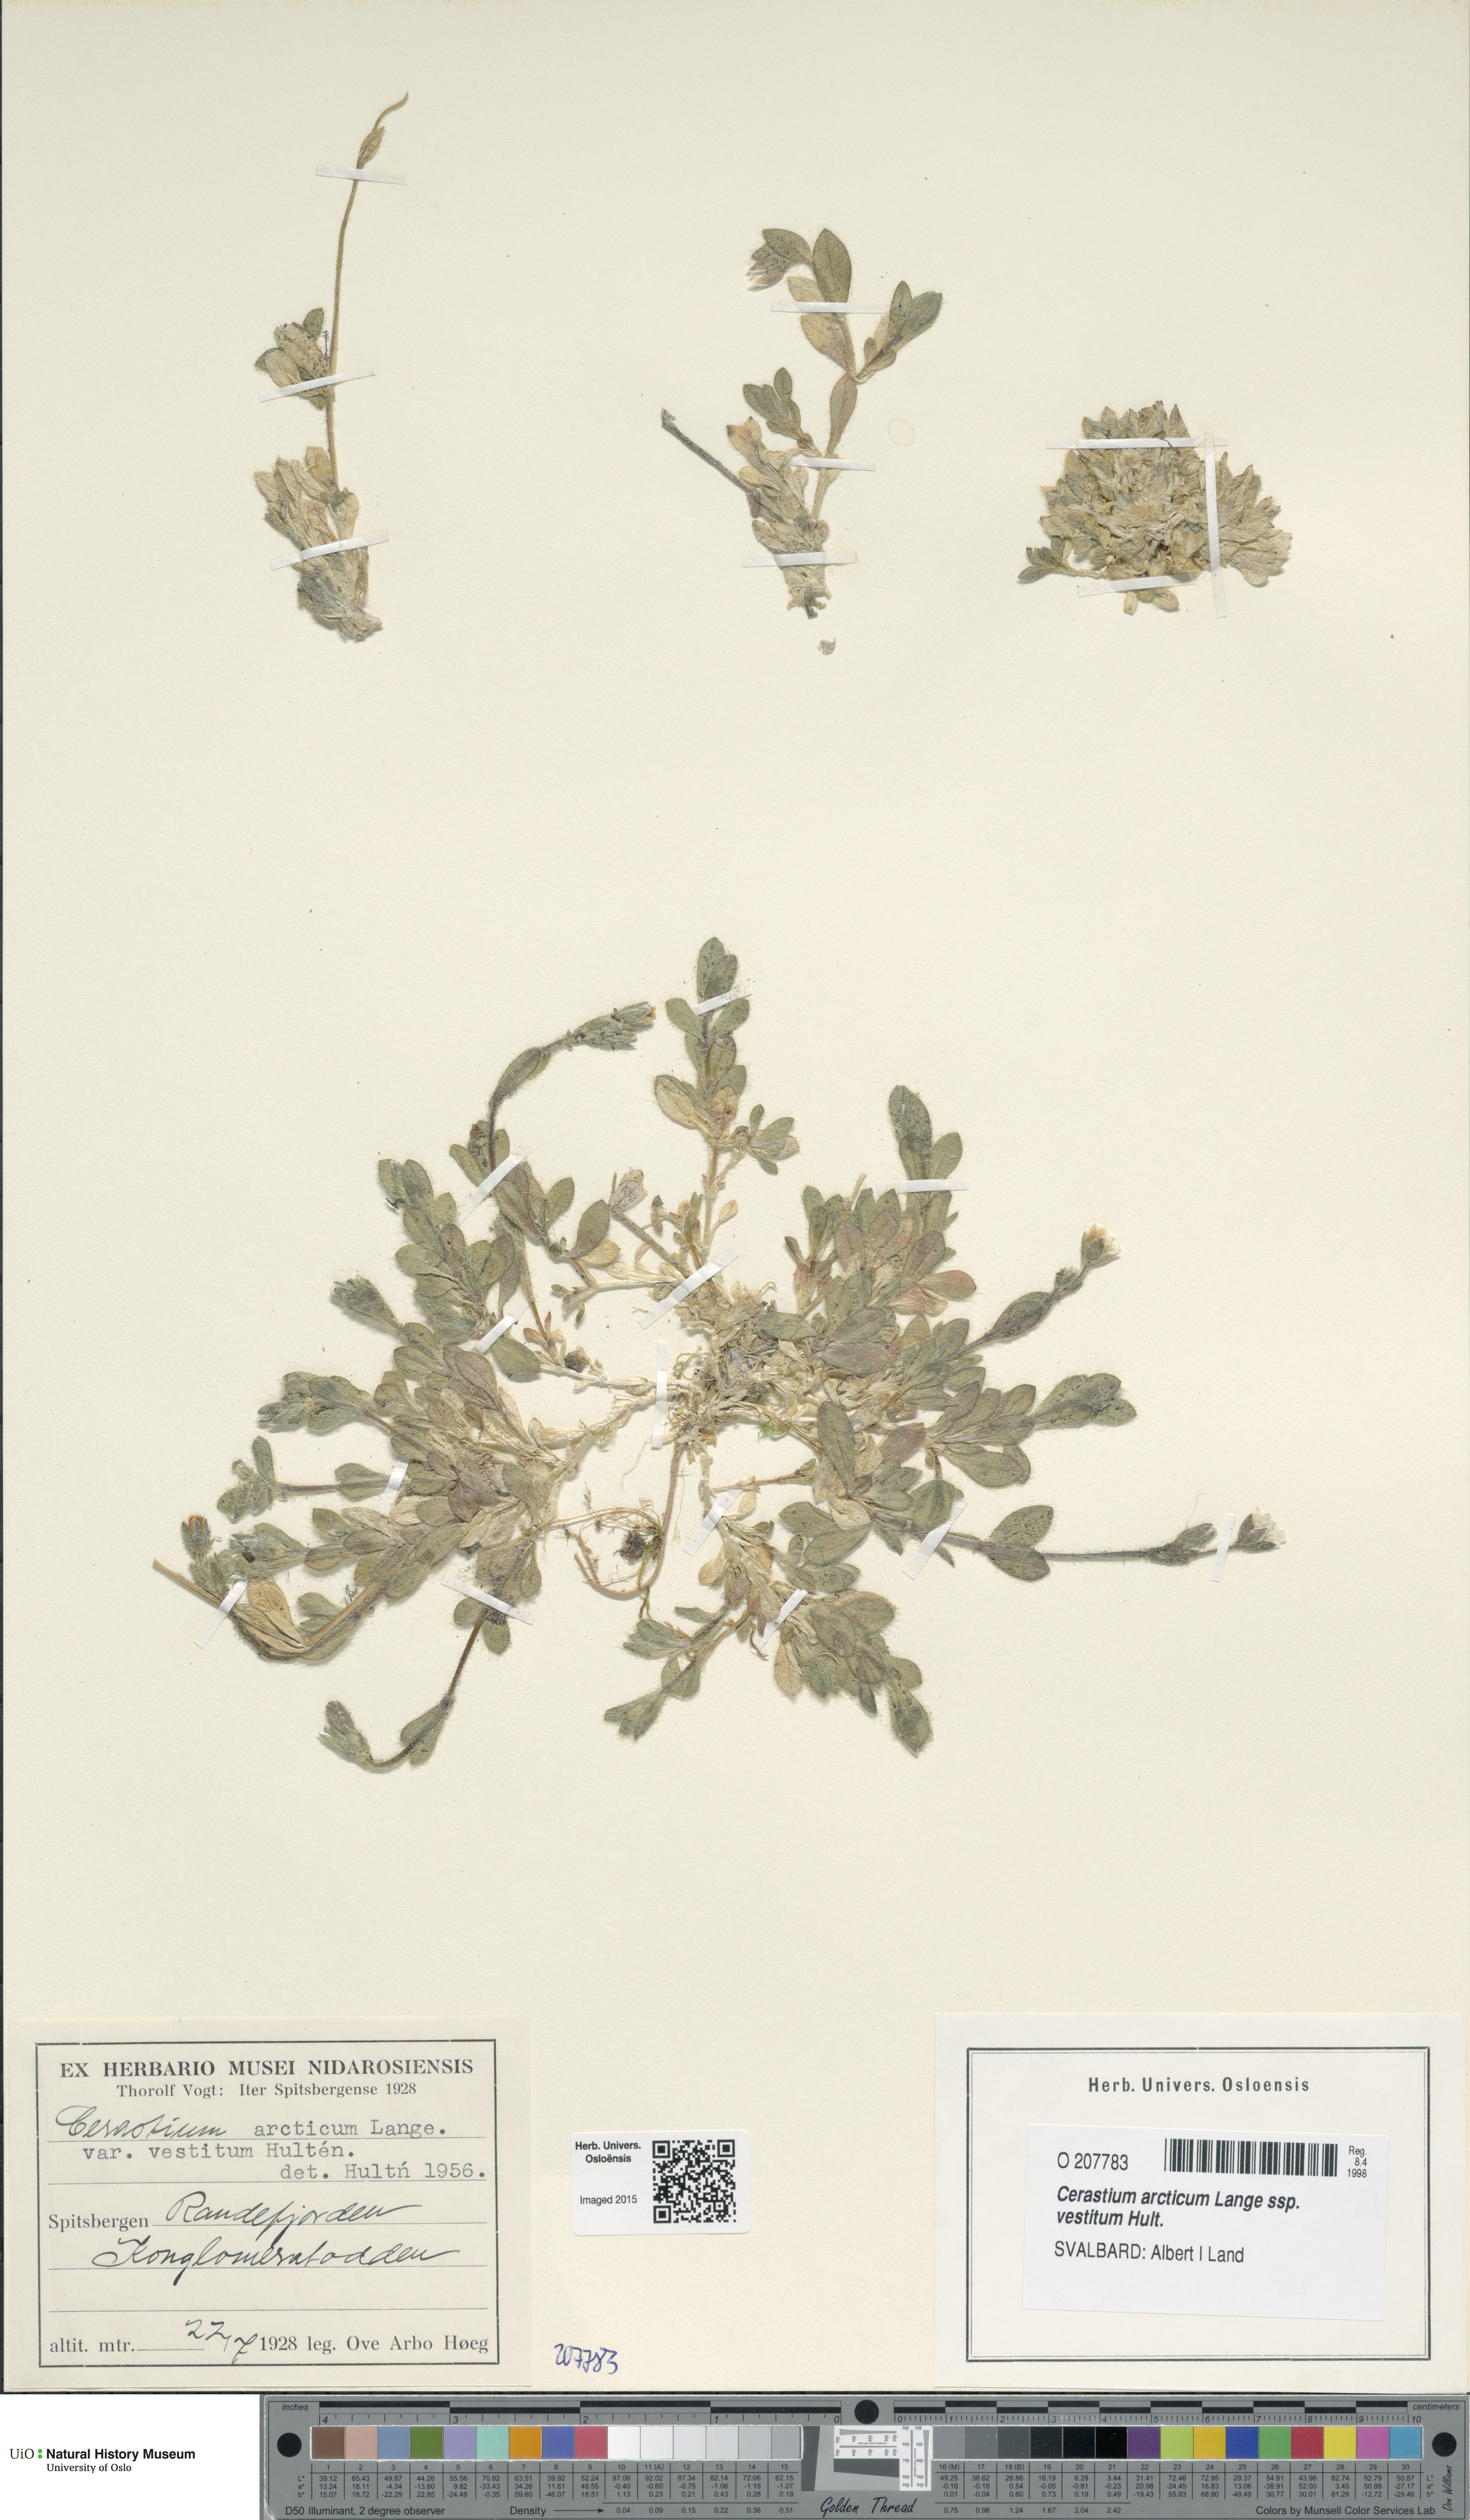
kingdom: Plantae
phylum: Tracheophyta
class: Magnoliopsida
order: Caryophyllales
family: Caryophyllaceae
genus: Cerastium
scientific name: Cerastium arcticum
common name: Arctic mouse-ear
